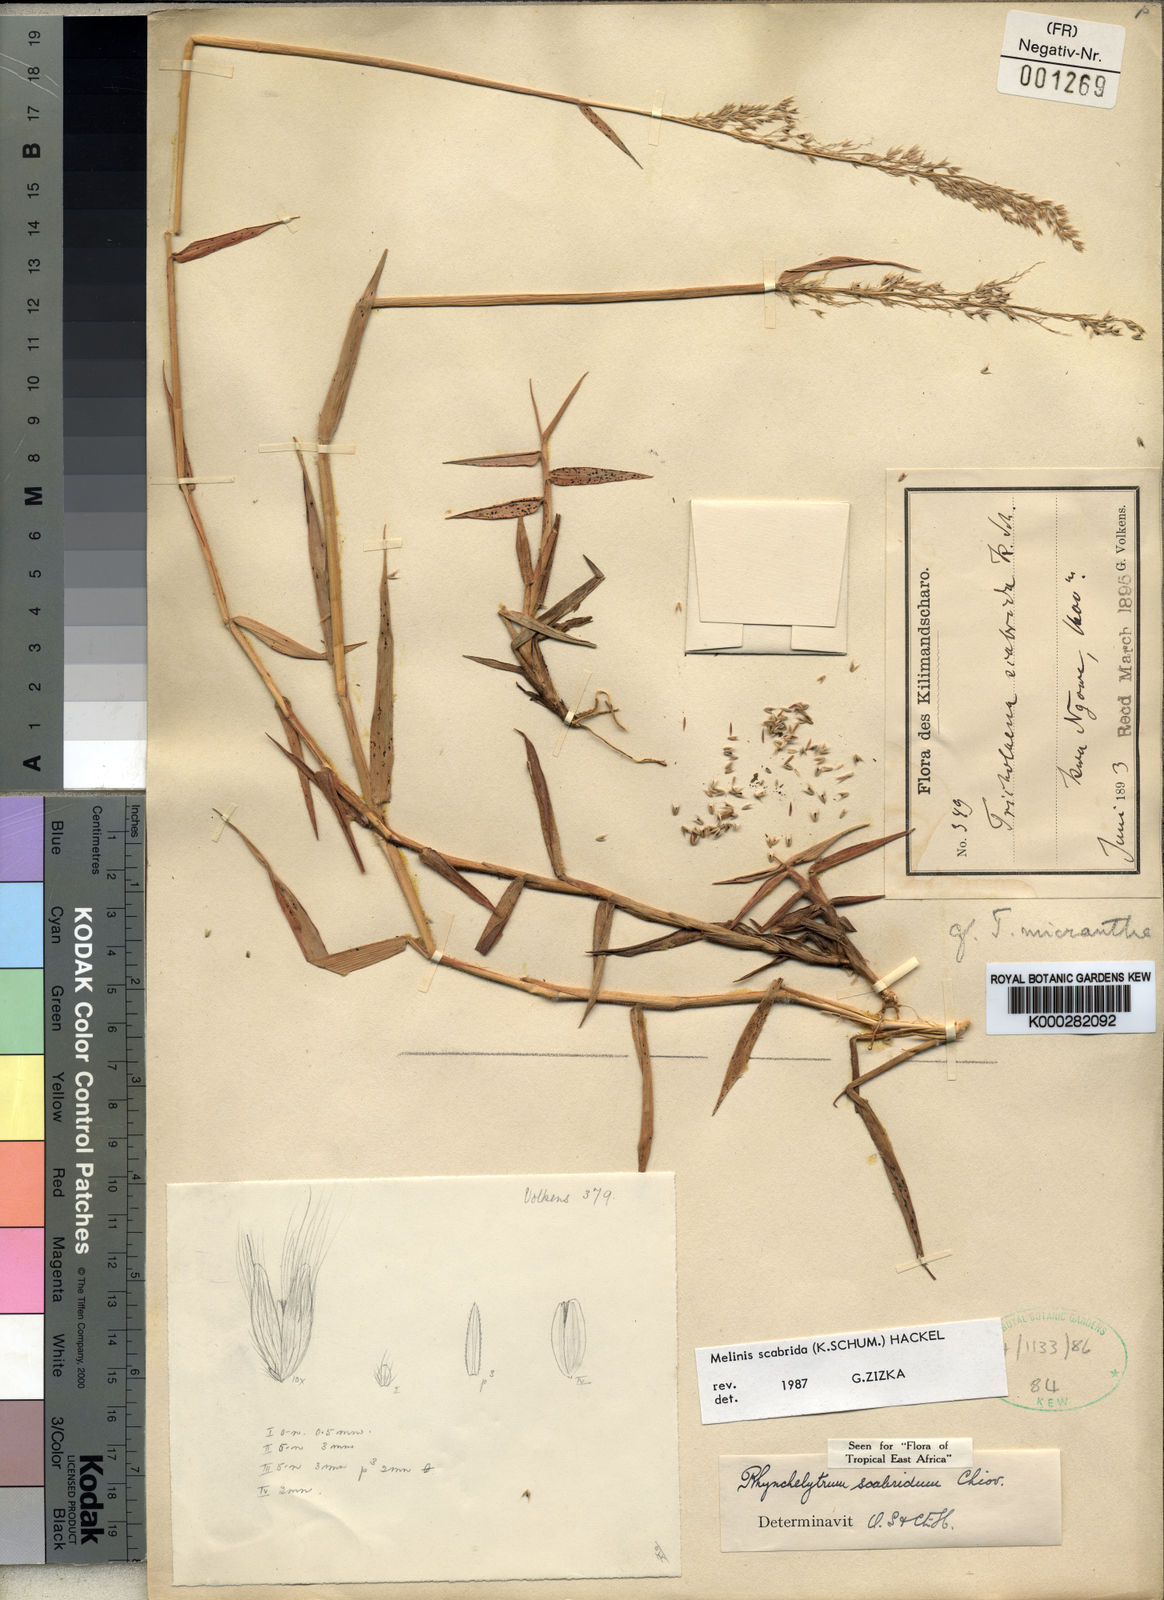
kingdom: Plantae
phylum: Tracheophyta
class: Liliopsida
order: Poales
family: Poaceae
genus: Melinis
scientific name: Melinis scabrida
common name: Millet grass
